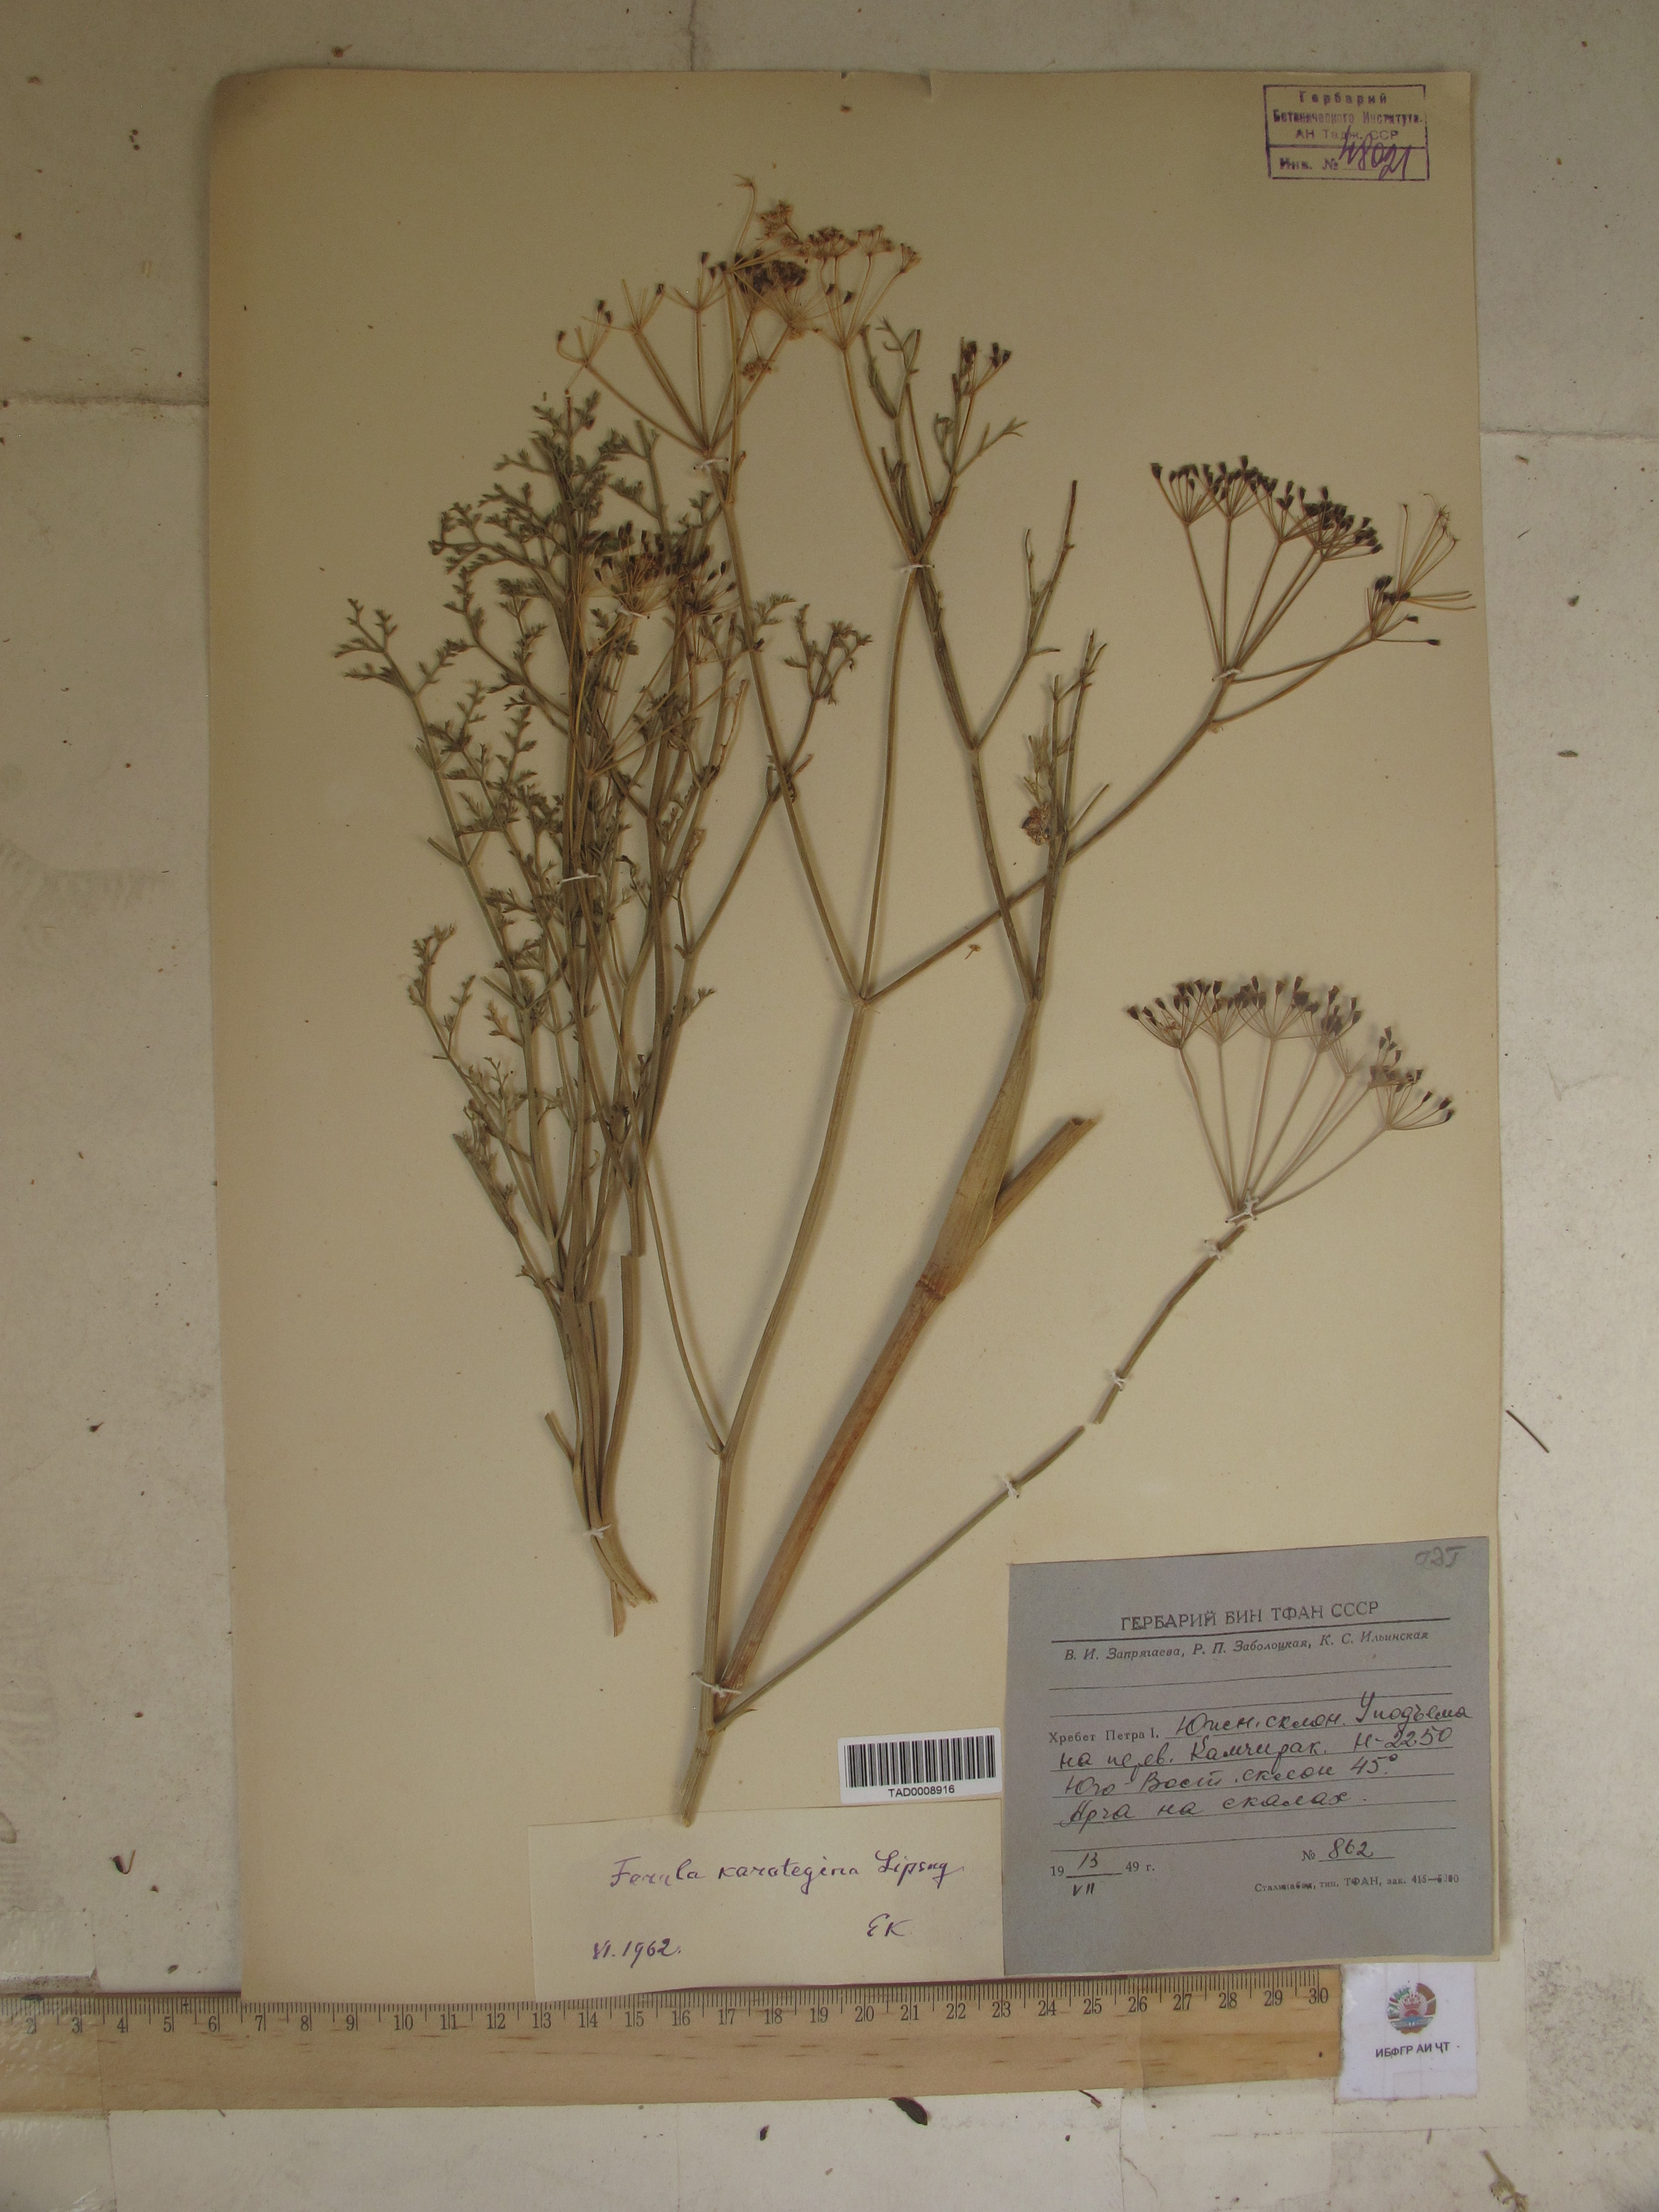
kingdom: Plantae
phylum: Tracheophyta
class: Magnoliopsida
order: Apiales
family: Apiaceae
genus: Ferula
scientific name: Ferula karategina
